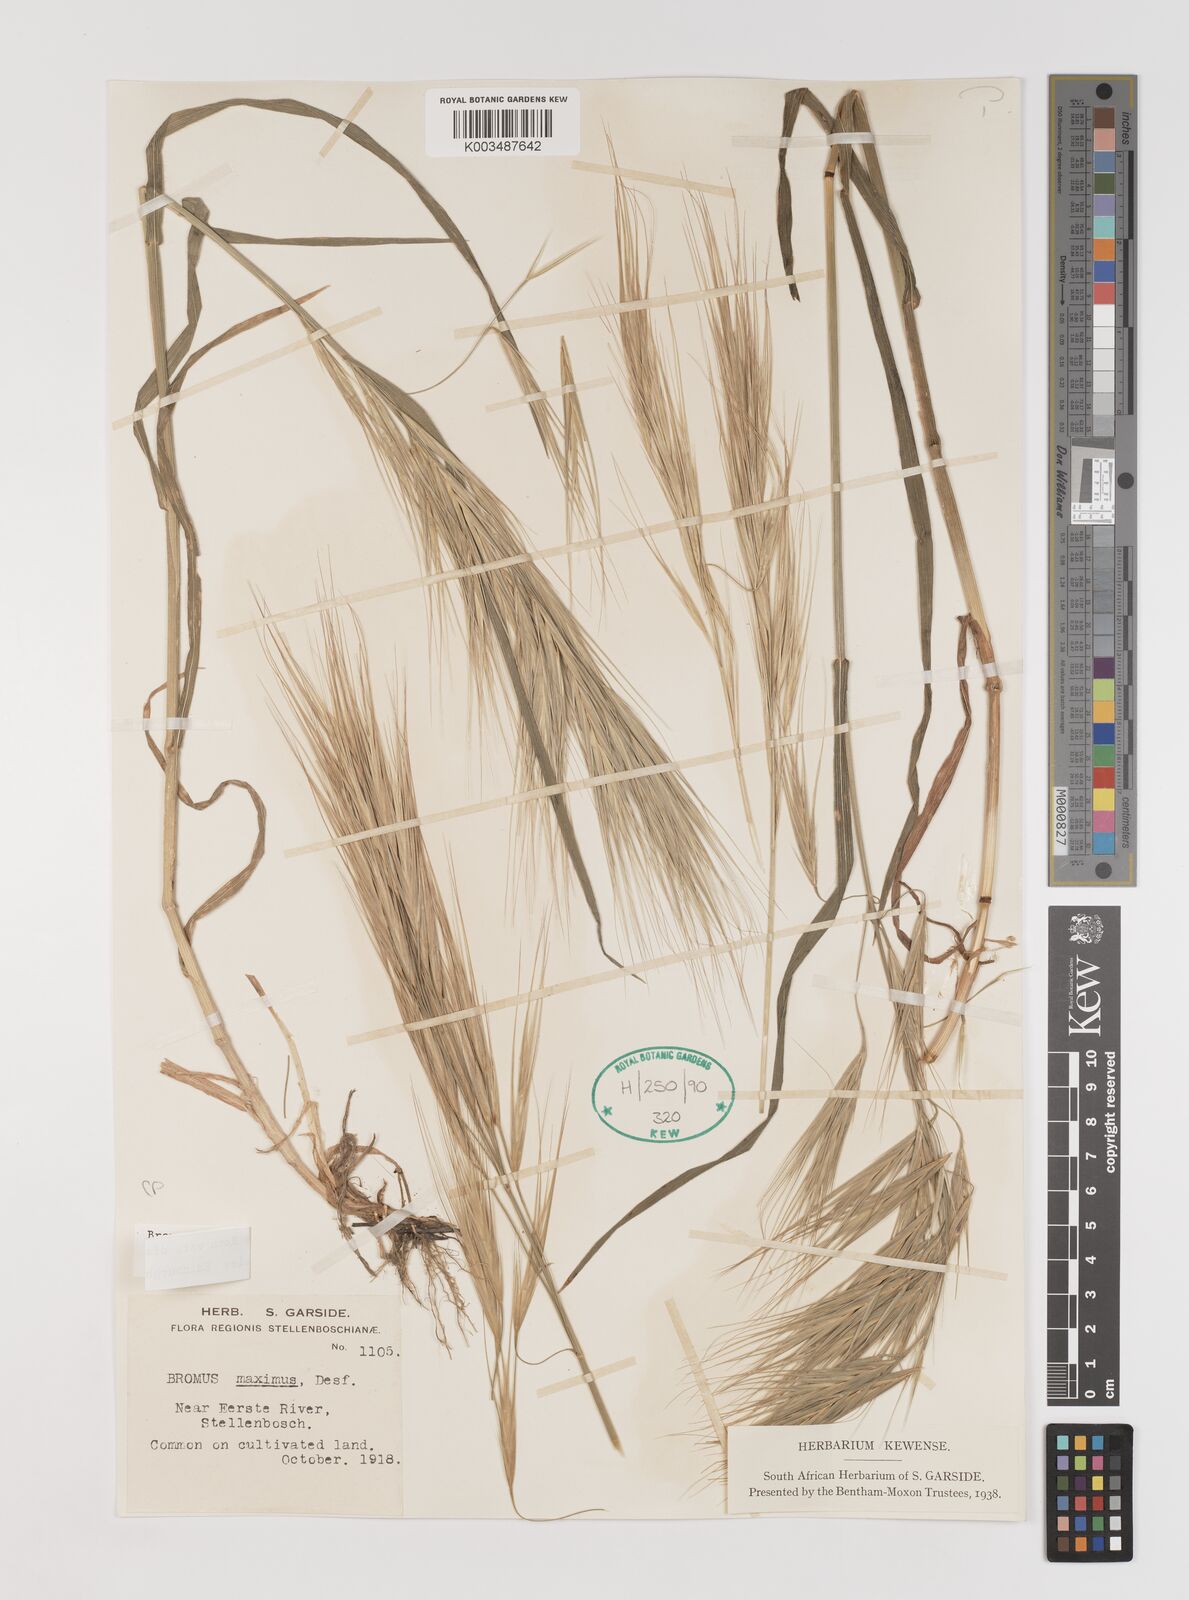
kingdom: Plantae
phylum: Tracheophyta
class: Liliopsida
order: Poales
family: Poaceae
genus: Bromus
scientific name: Bromus diandrus
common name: Ripgut brome
